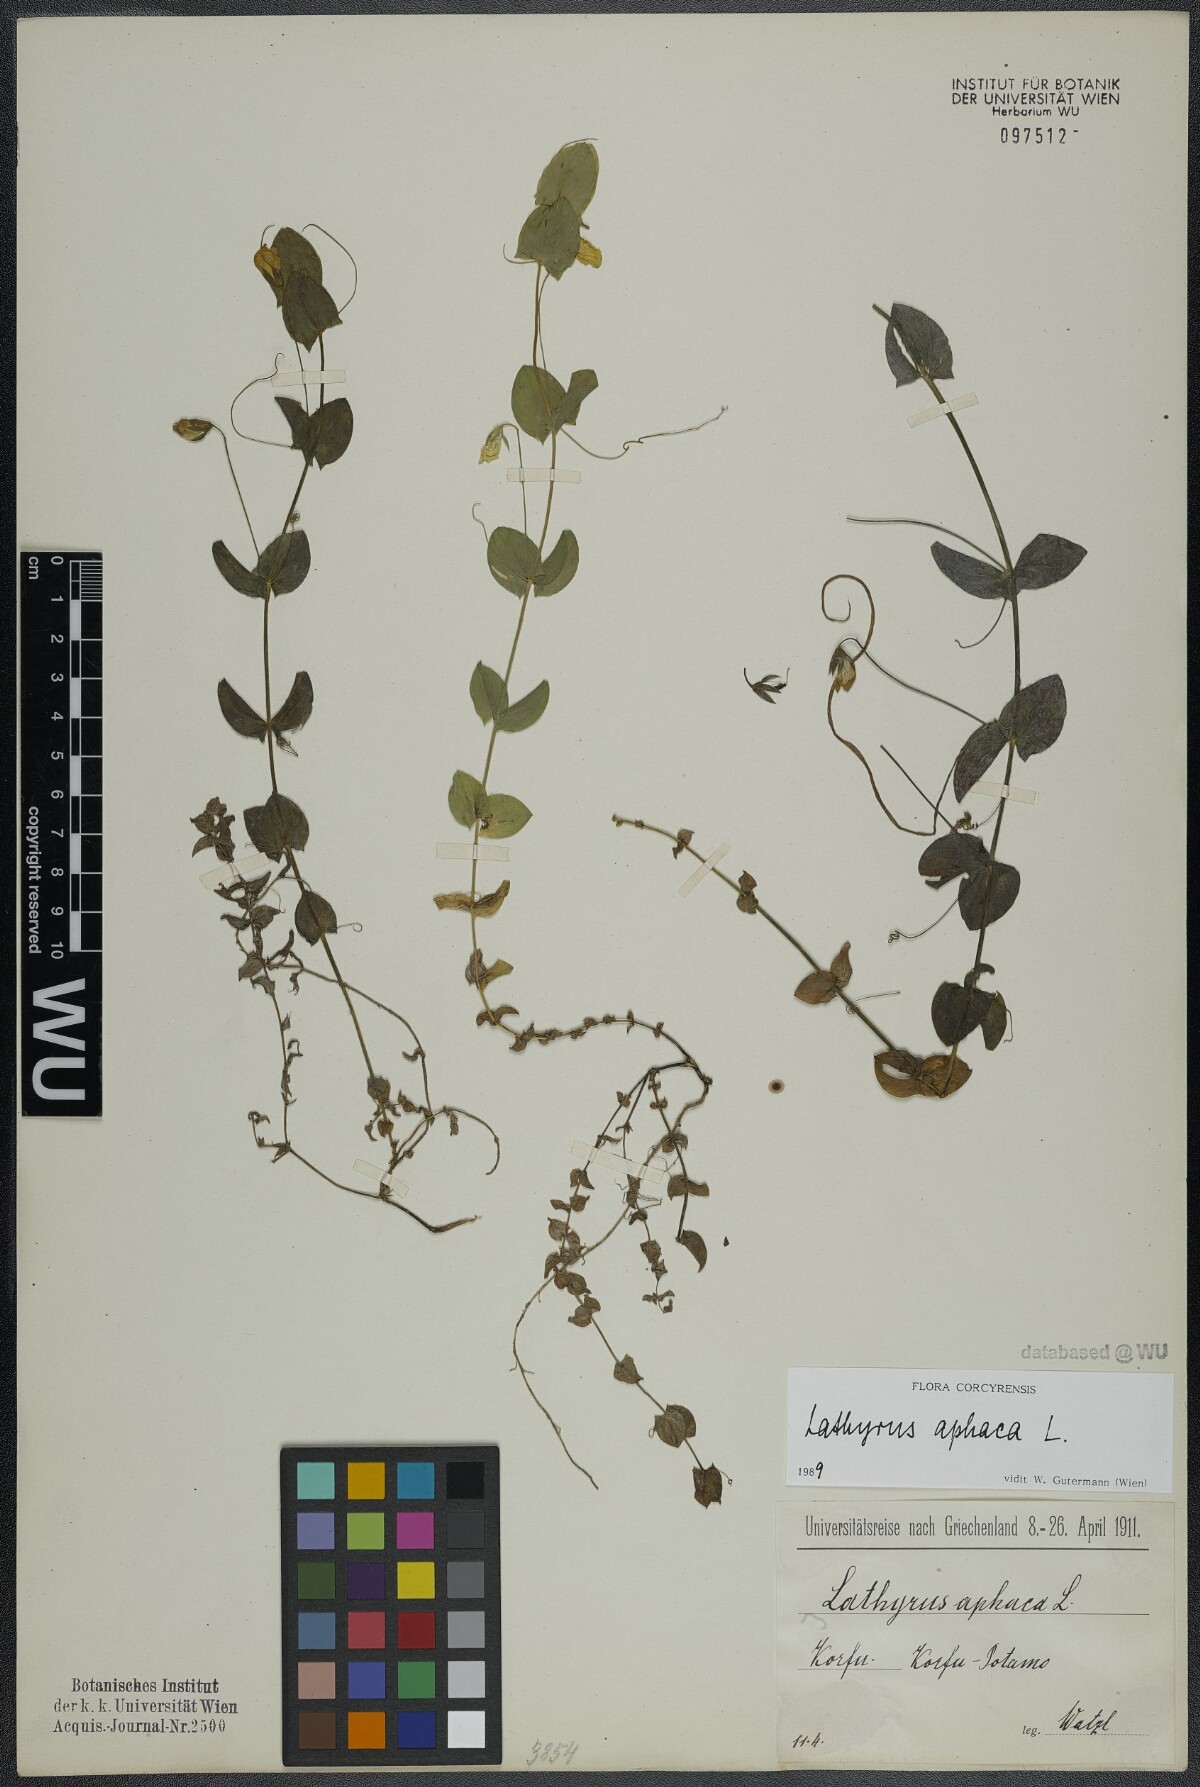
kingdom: Plantae
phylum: Tracheophyta
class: Magnoliopsida
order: Fabales
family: Fabaceae
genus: Lathyrus
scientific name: Lathyrus aphaca
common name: Yellow vetchling
